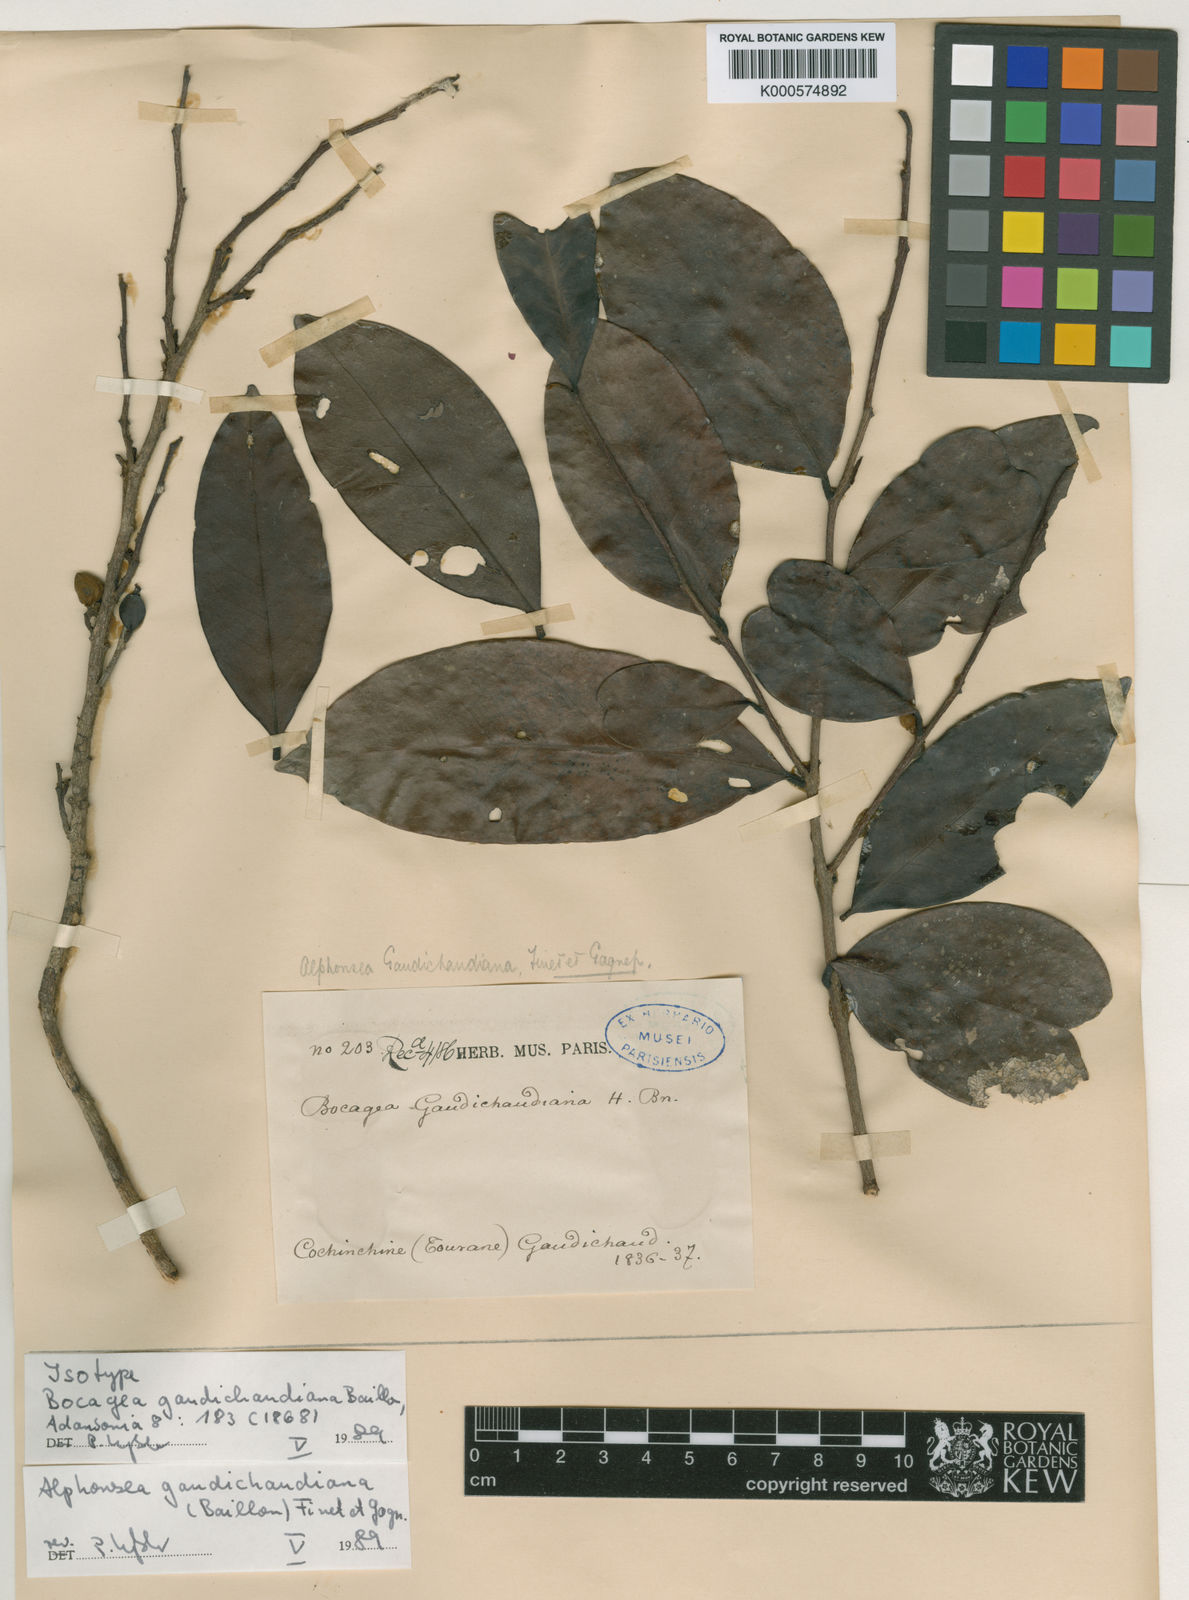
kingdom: Plantae
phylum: Tracheophyta
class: Magnoliopsida
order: Magnoliales
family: Annonaceae
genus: Alphonsea
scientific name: Alphonsea gaudichaudiana
